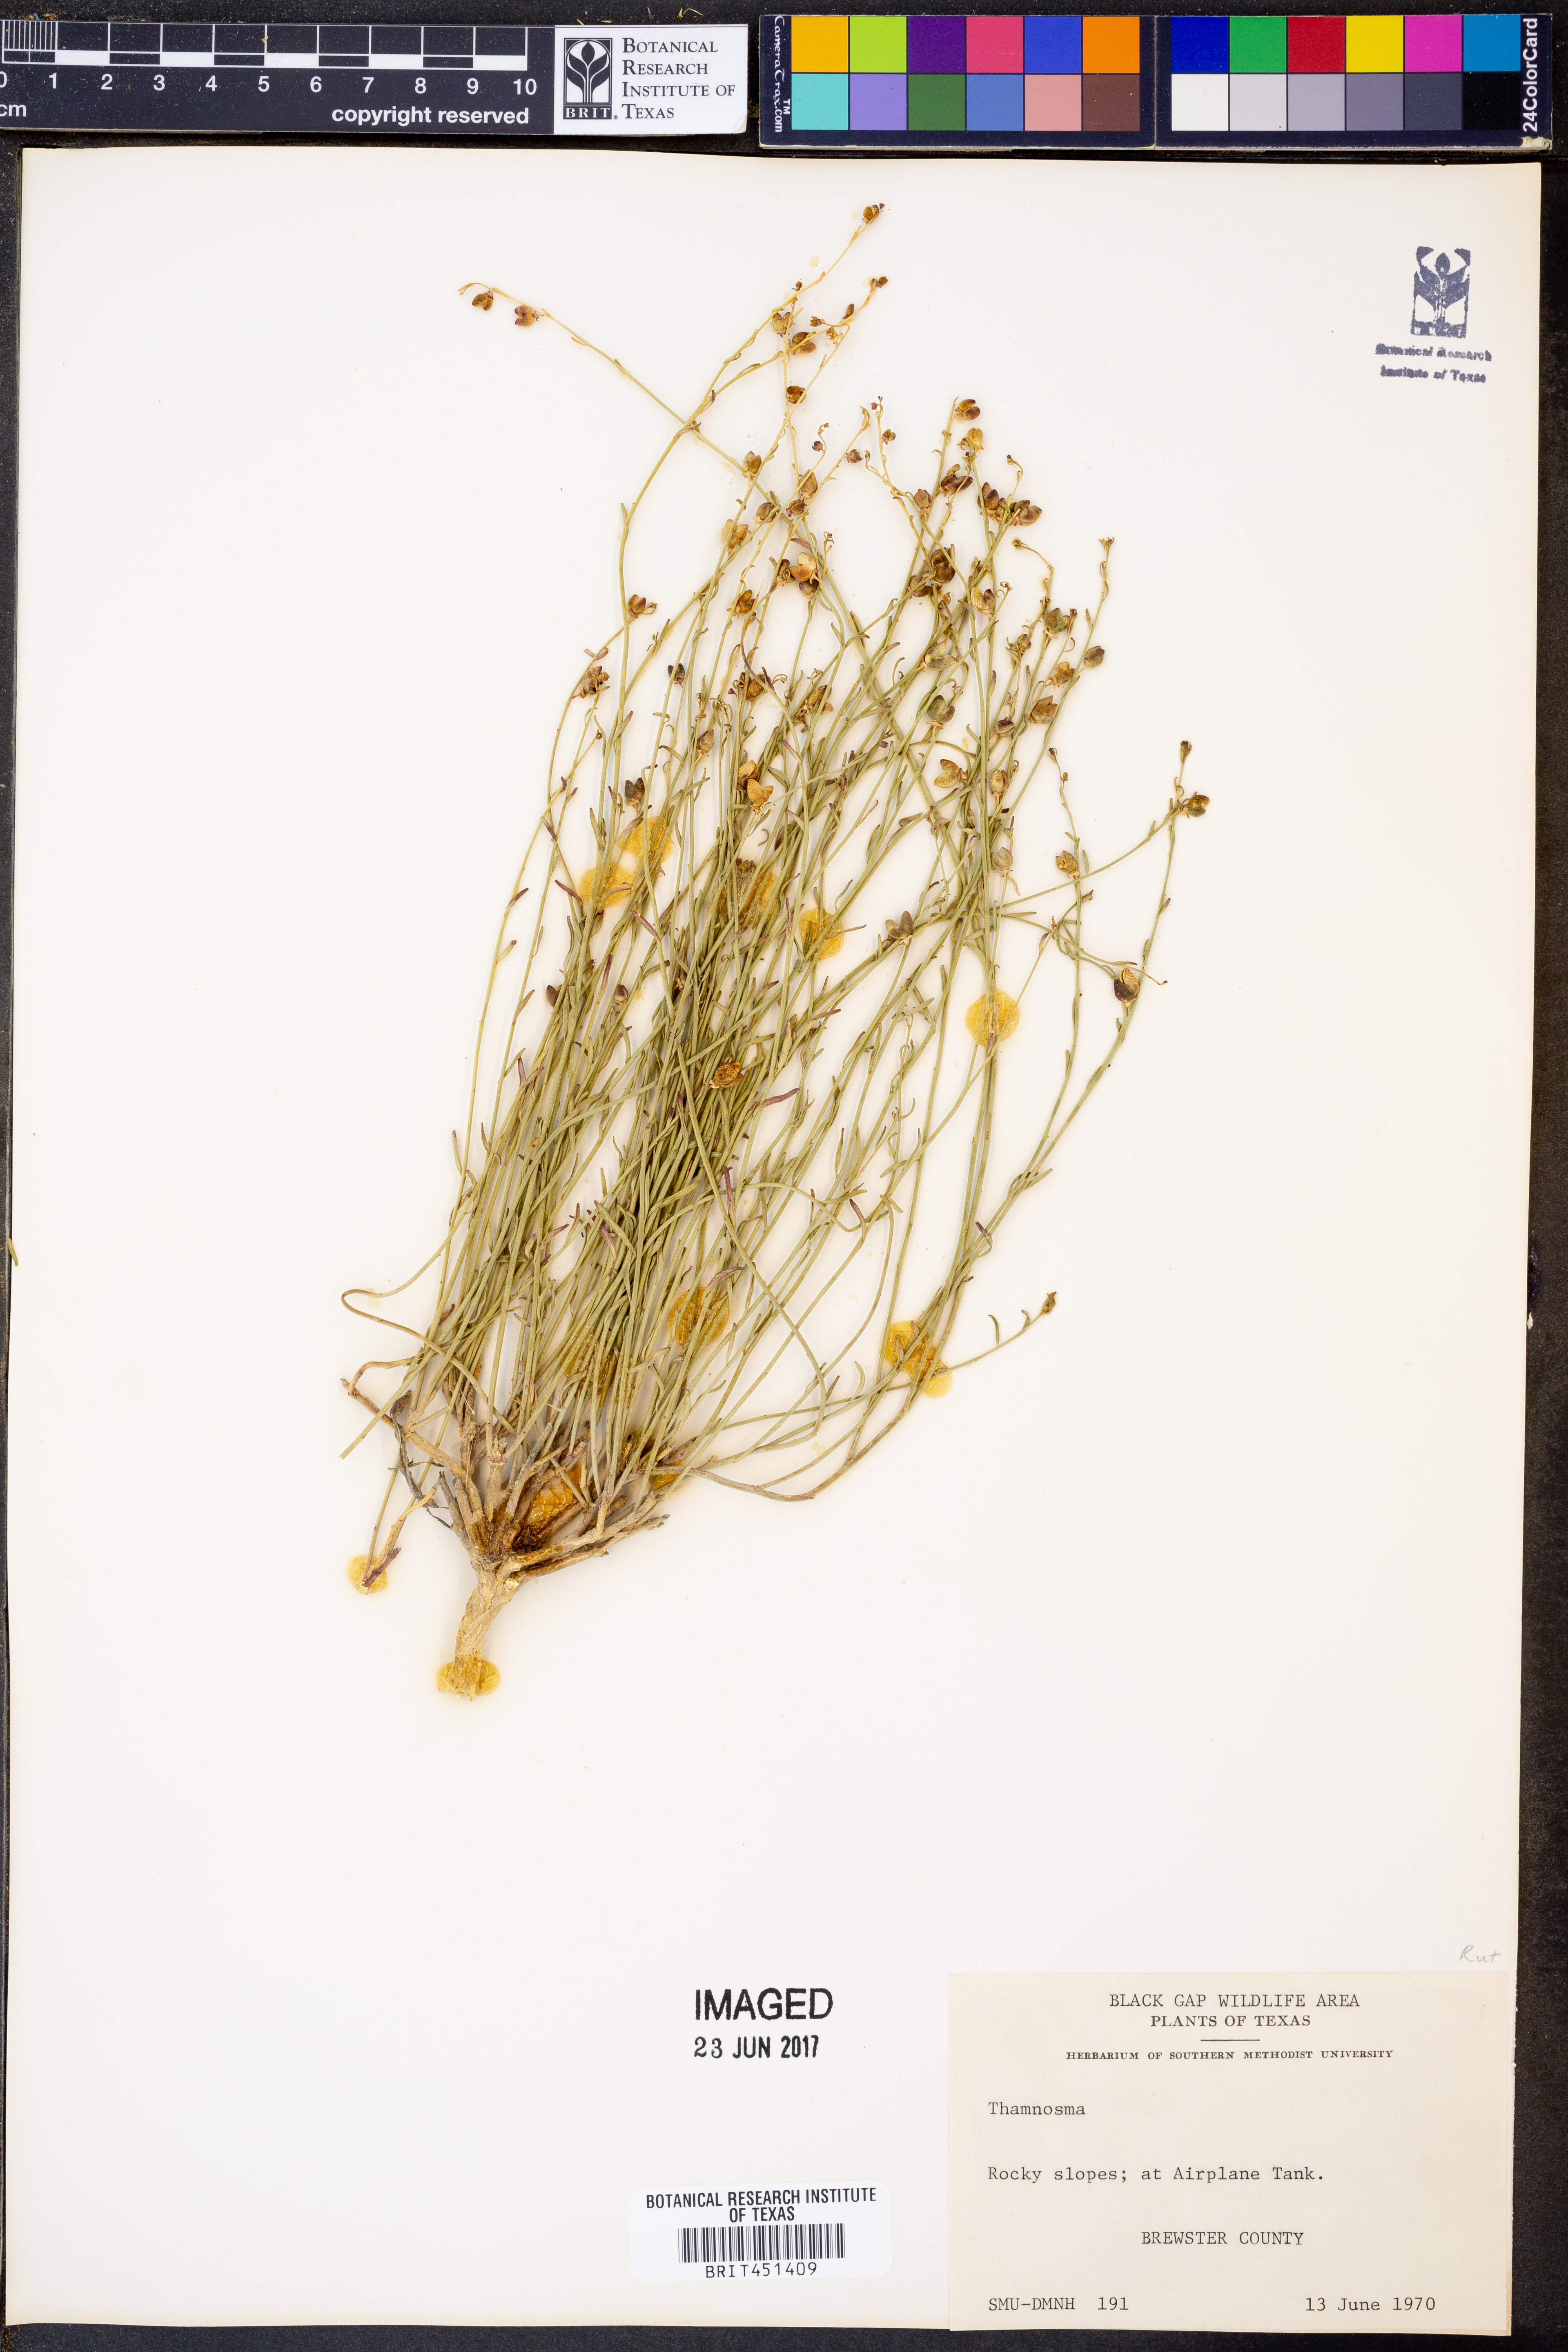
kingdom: Plantae
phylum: Tracheophyta
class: Magnoliopsida
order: Sapindales
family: Rutaceae
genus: Thamnosma
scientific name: Thamnosma
